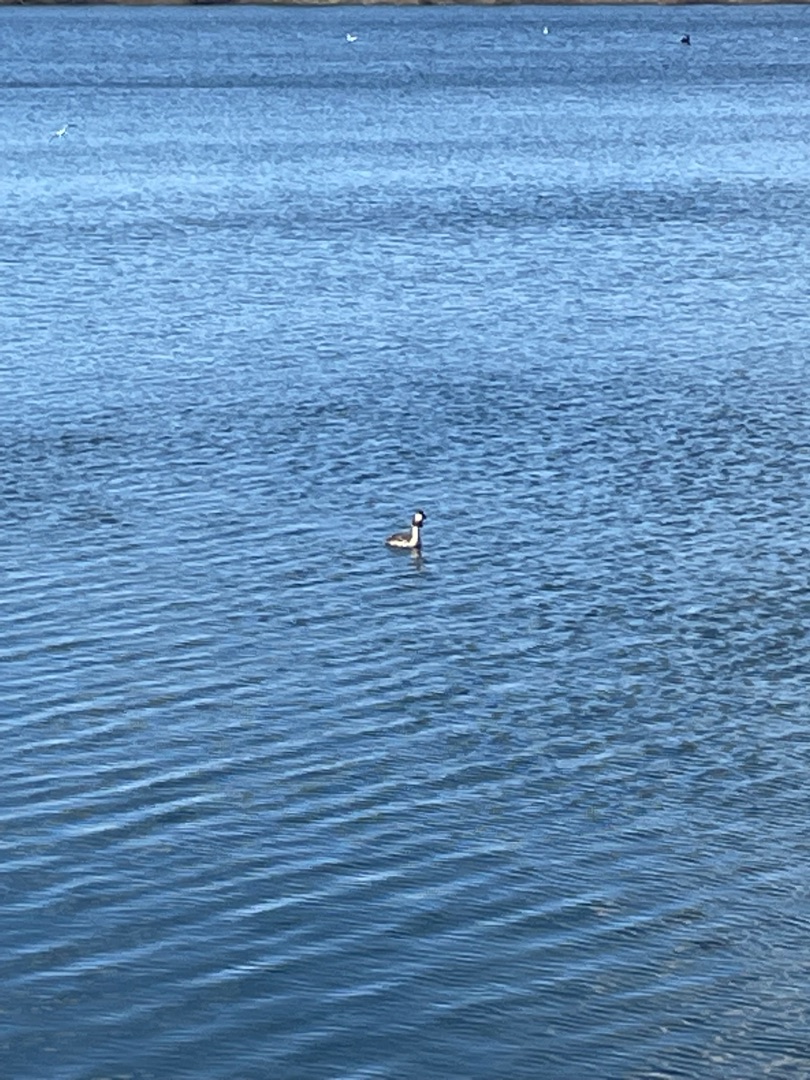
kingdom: Animalia
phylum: Chordata
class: Aves
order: Podicipediformes
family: Podicipedidae
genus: Podiceps
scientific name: Podiceps cristatus
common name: Toppet lappedykker
